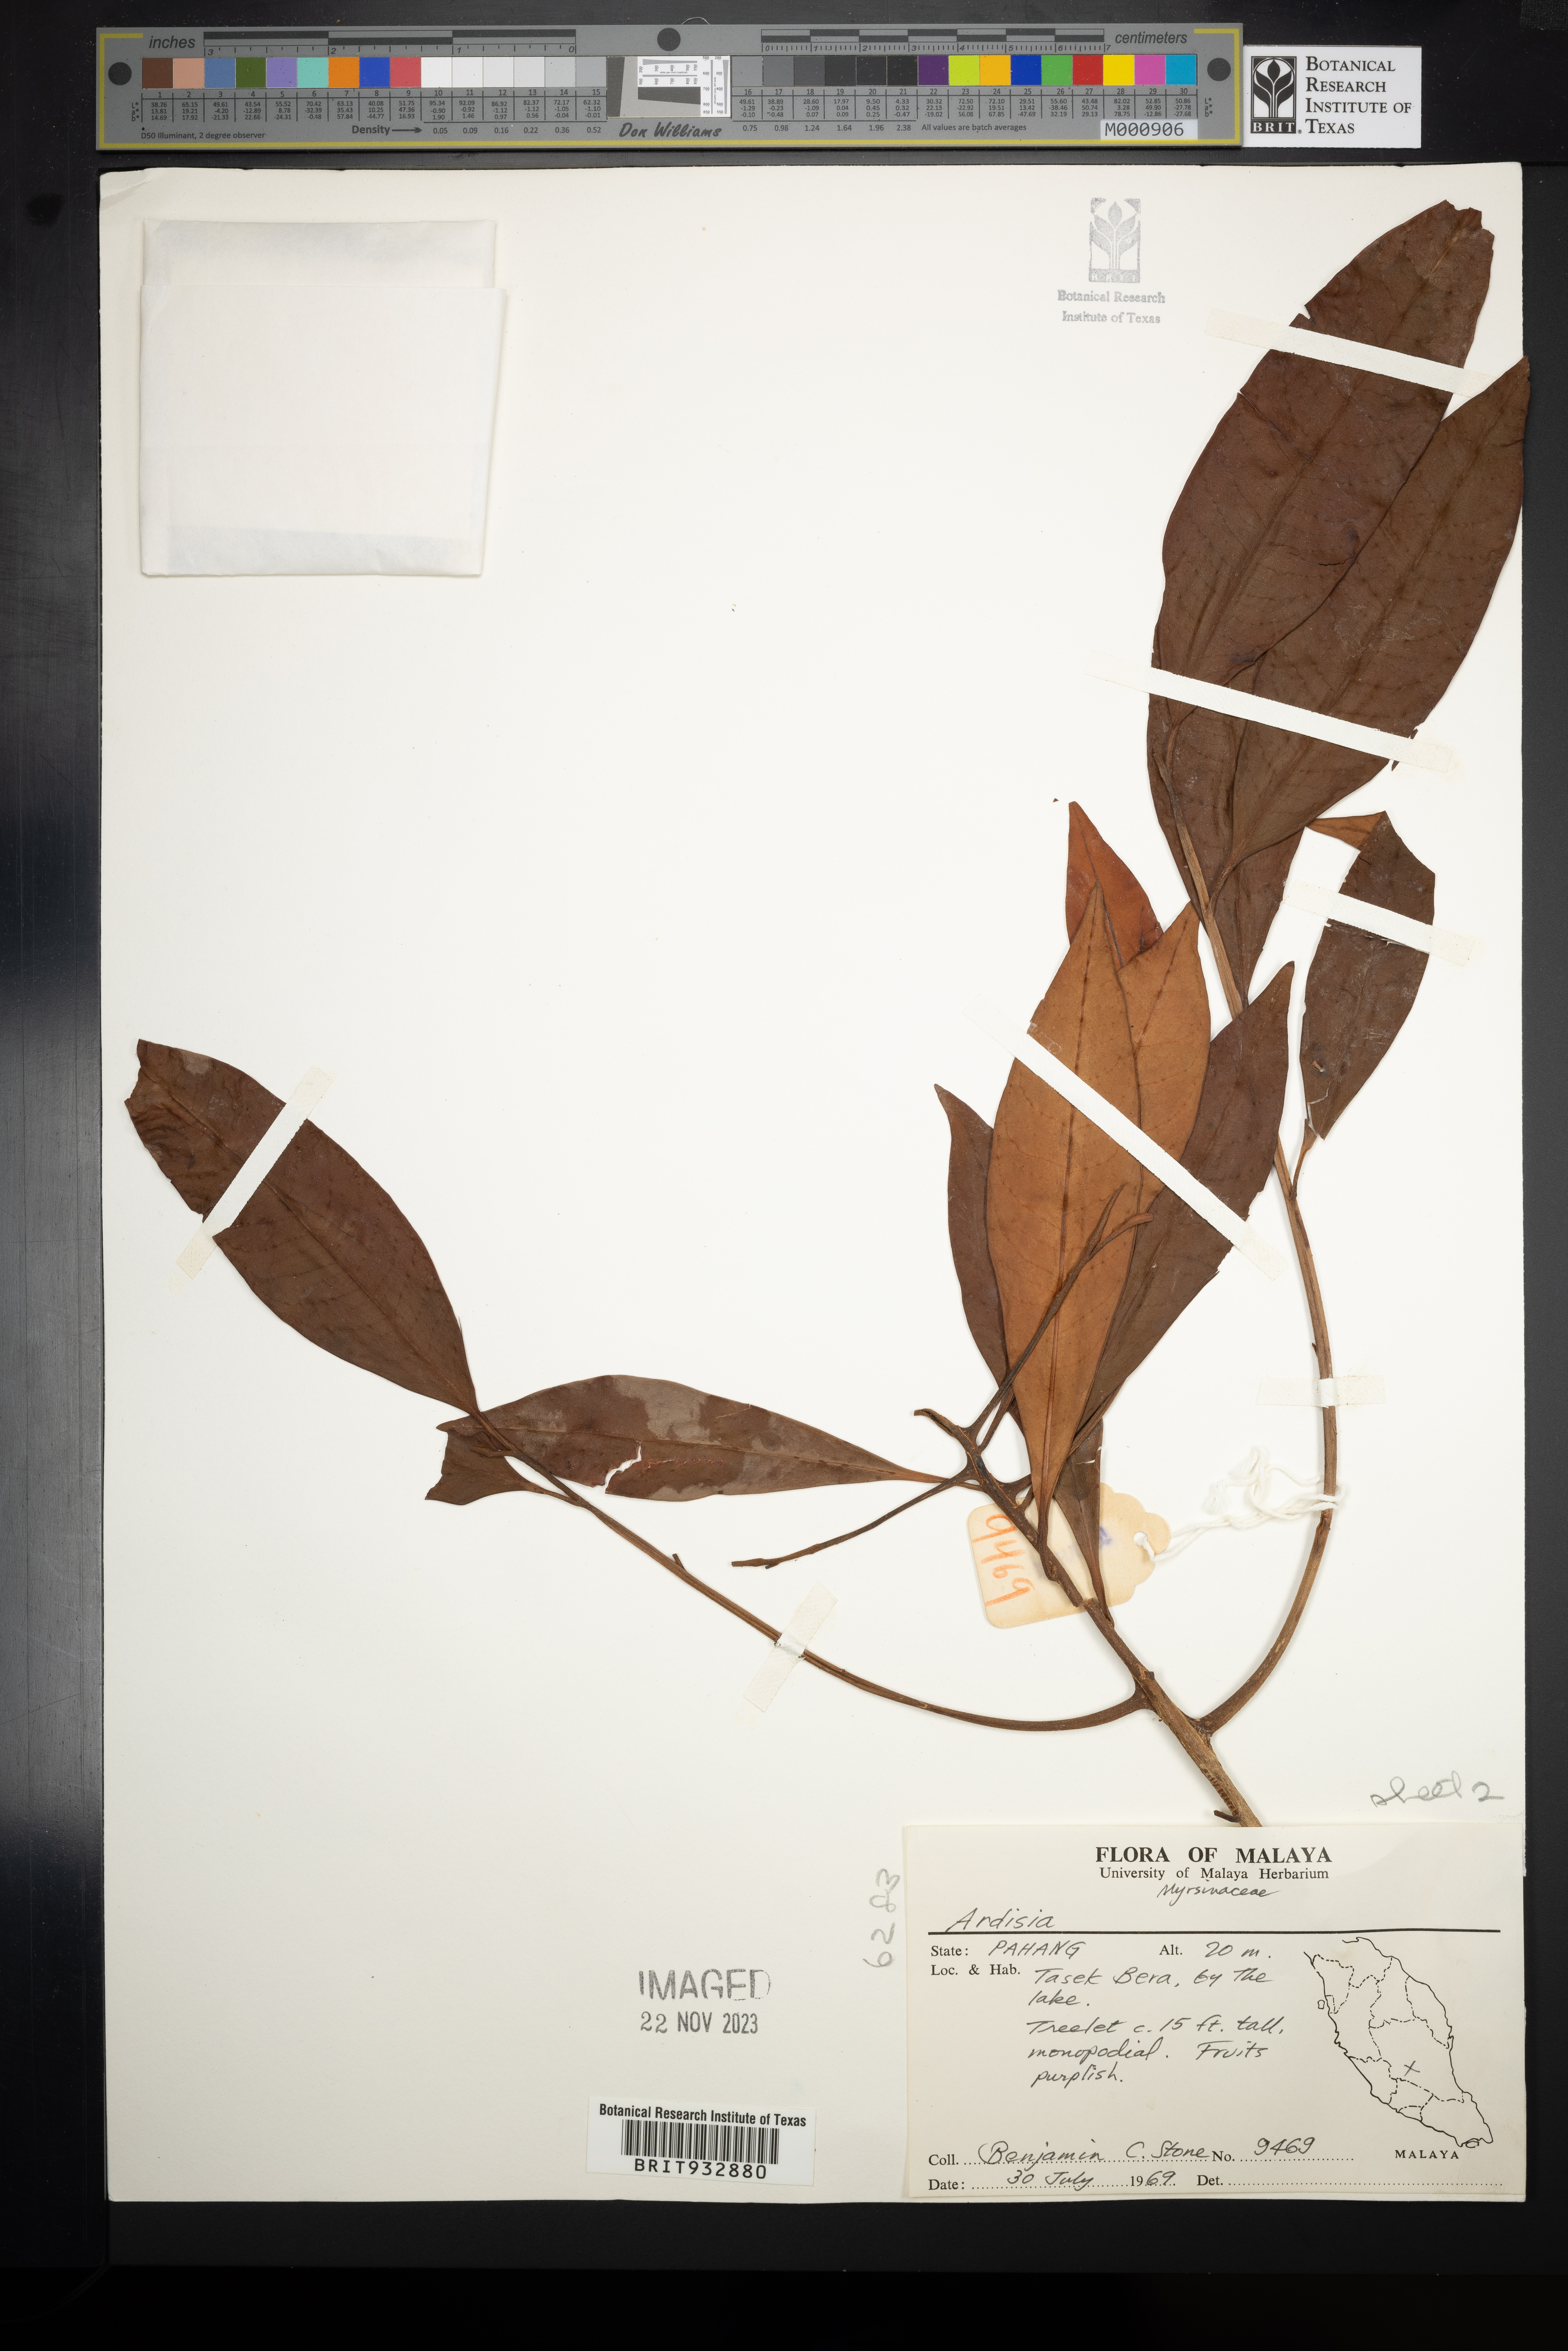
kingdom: Plantae
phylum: Tracheophyta
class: Magnoliopsida
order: Ericales
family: Primulaceae
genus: Ardisia
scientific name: Ardisia
